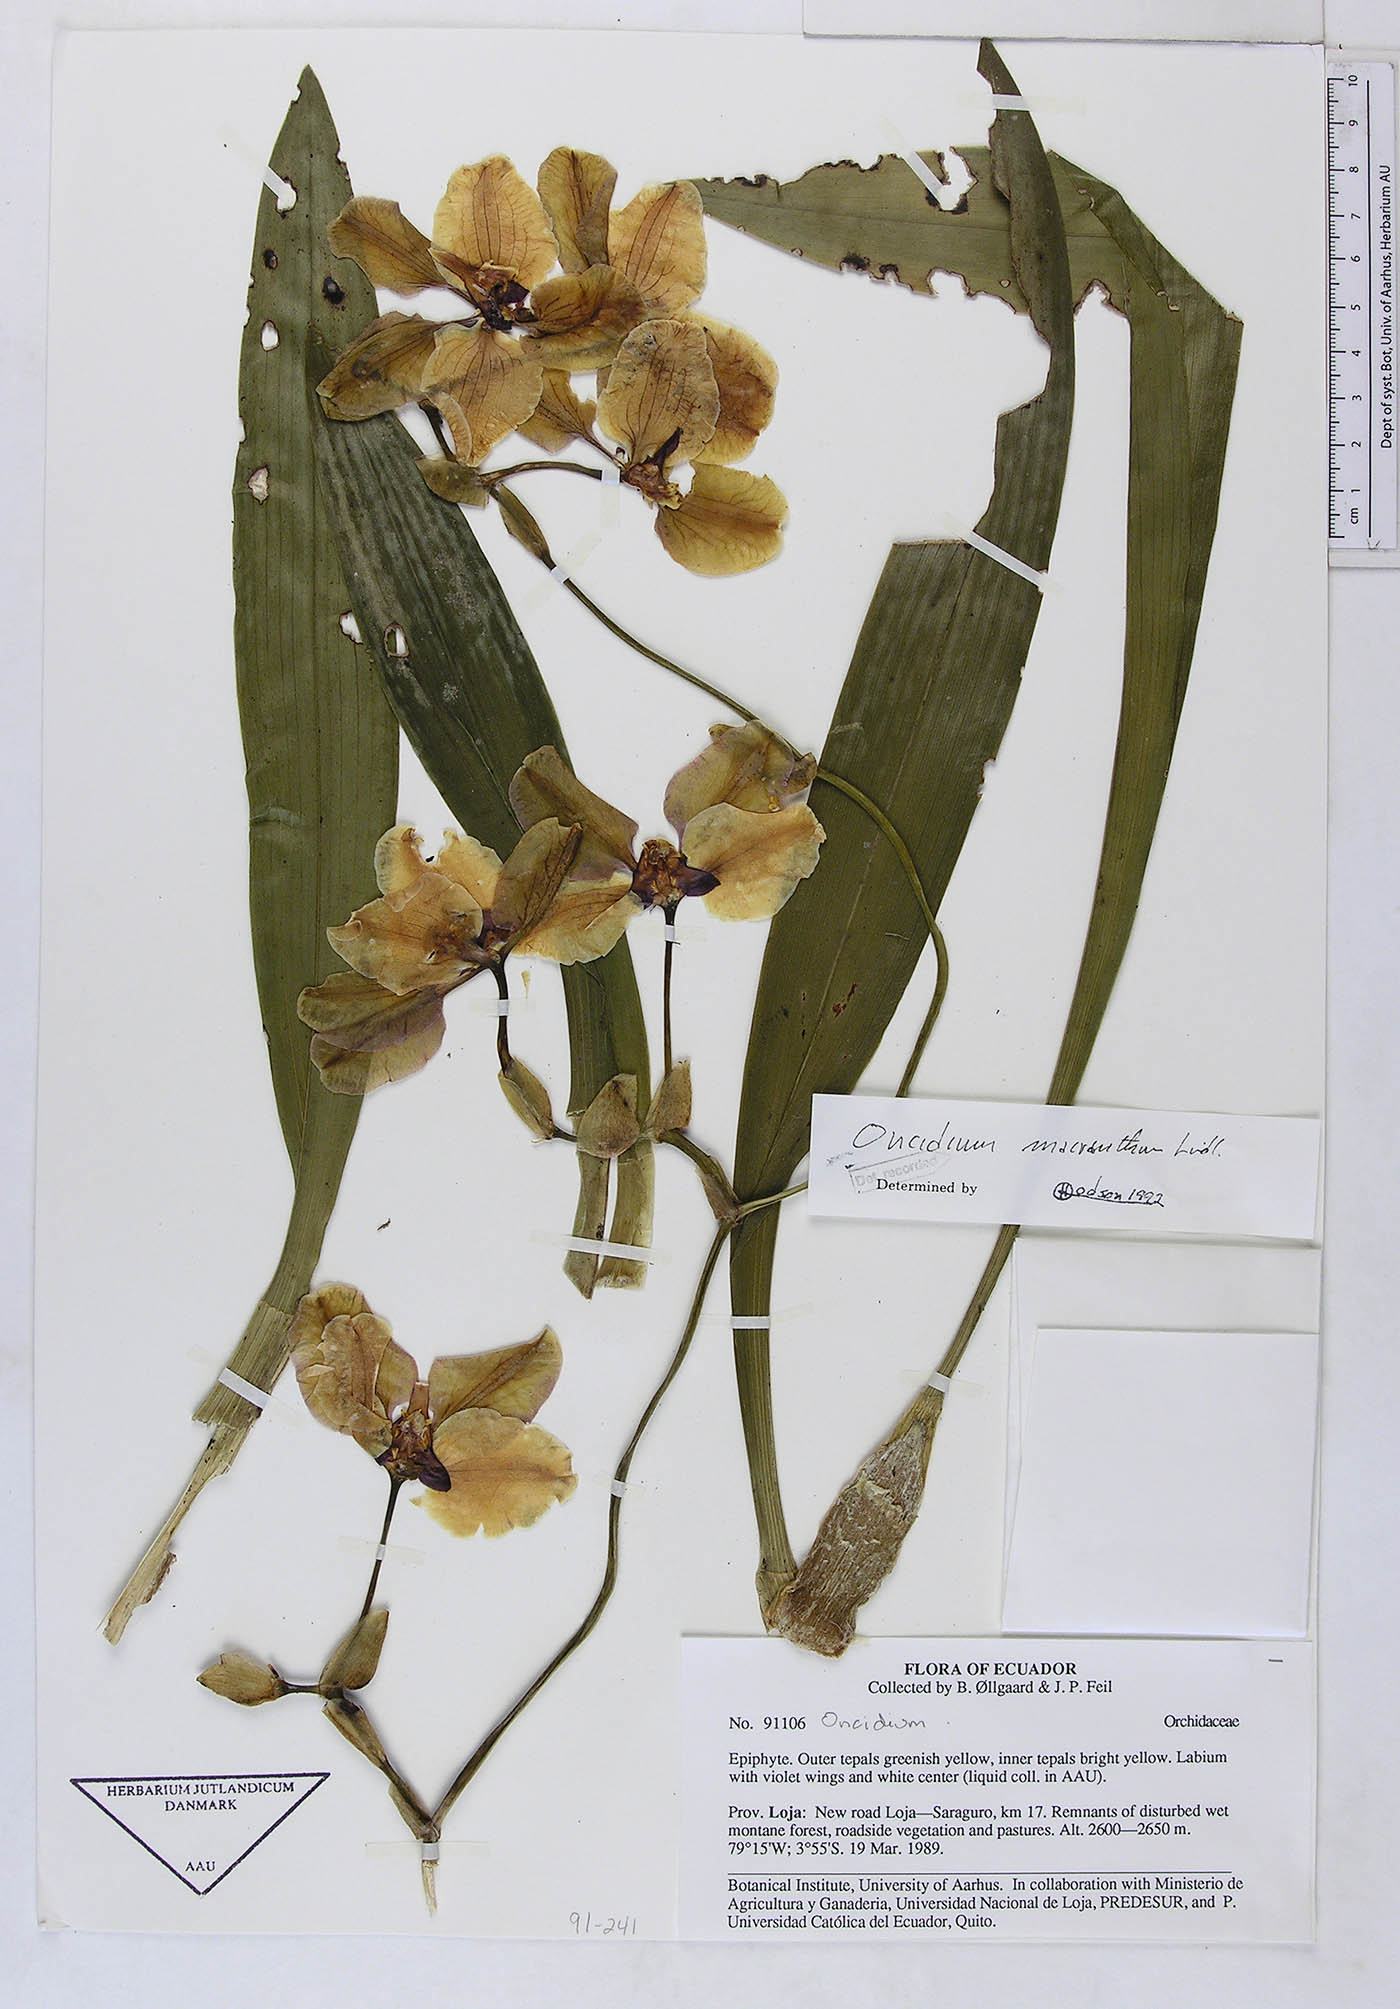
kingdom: Plantae
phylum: Tracheophyta
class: Liliopsida
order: Asparagales
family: Orchidaceae
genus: Cyrtochilum
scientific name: Cyrtochilum macranthum
